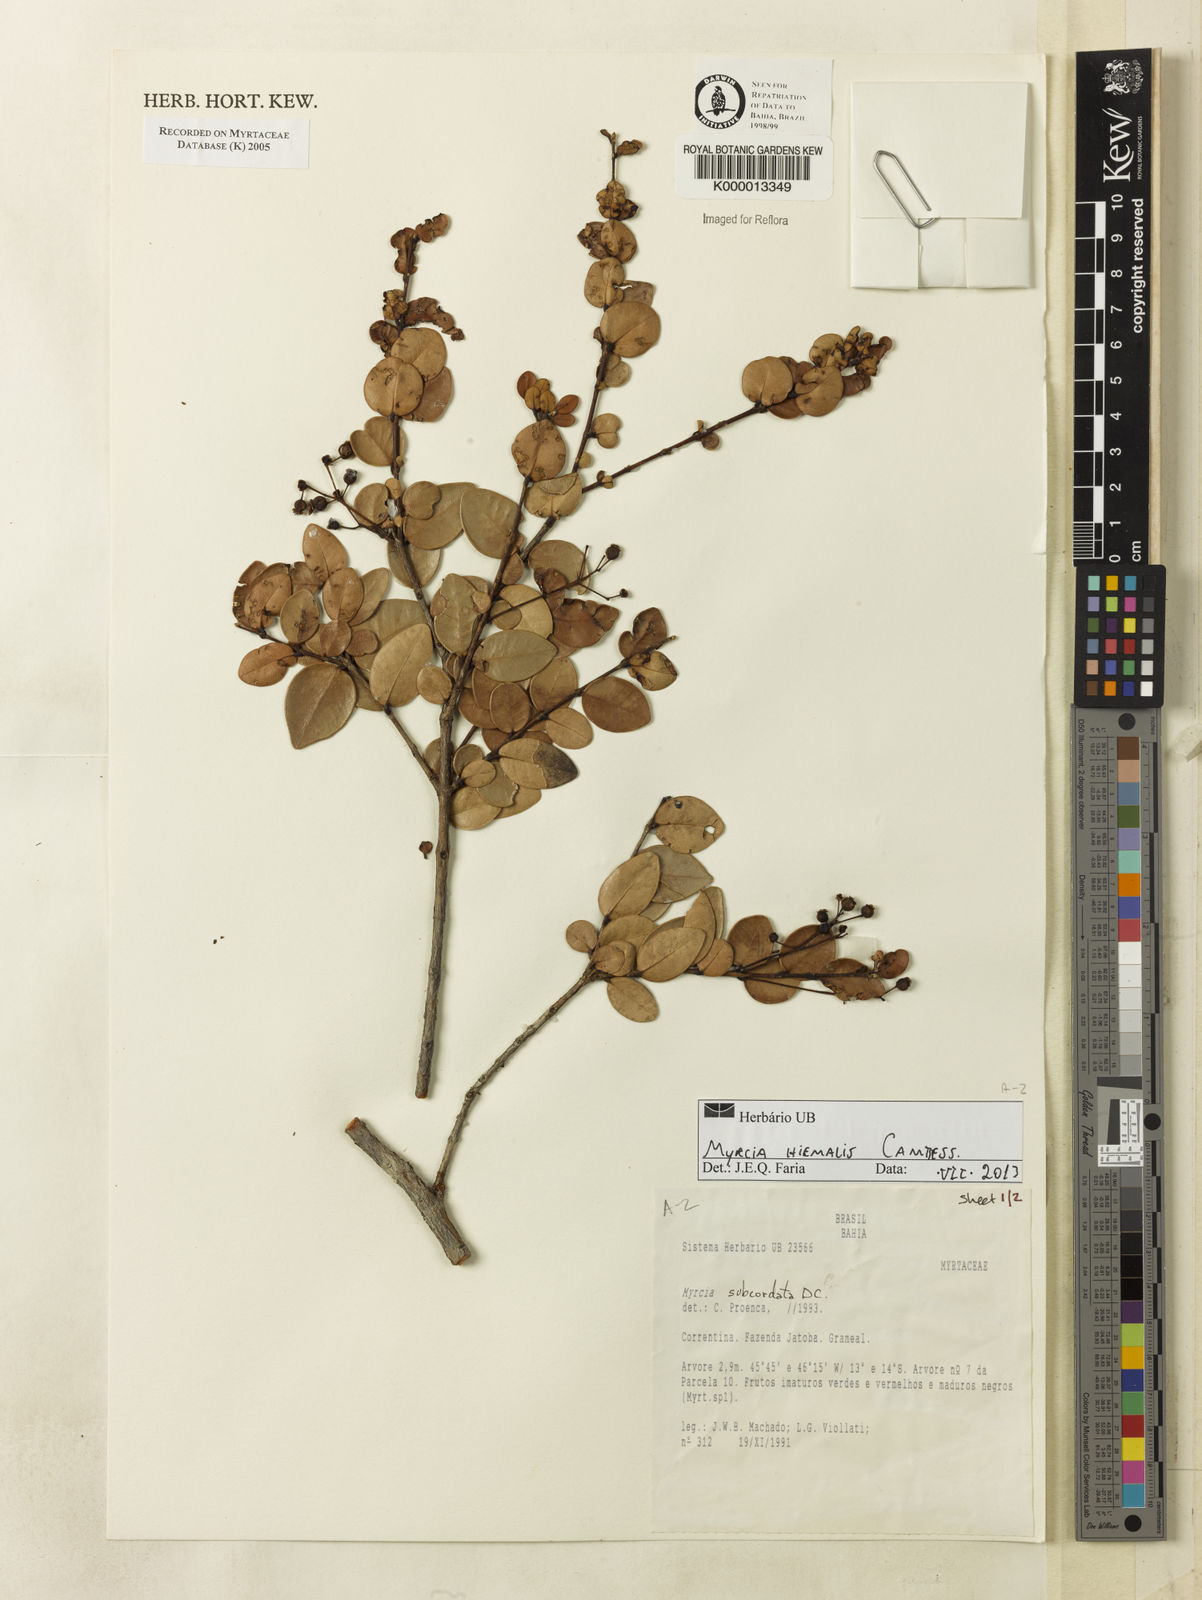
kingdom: Plantae
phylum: Tracheophyta
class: Magnoliopsida
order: Myrtales
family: Myrtaceae
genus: Myrcia
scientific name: Myrcia subcordata
